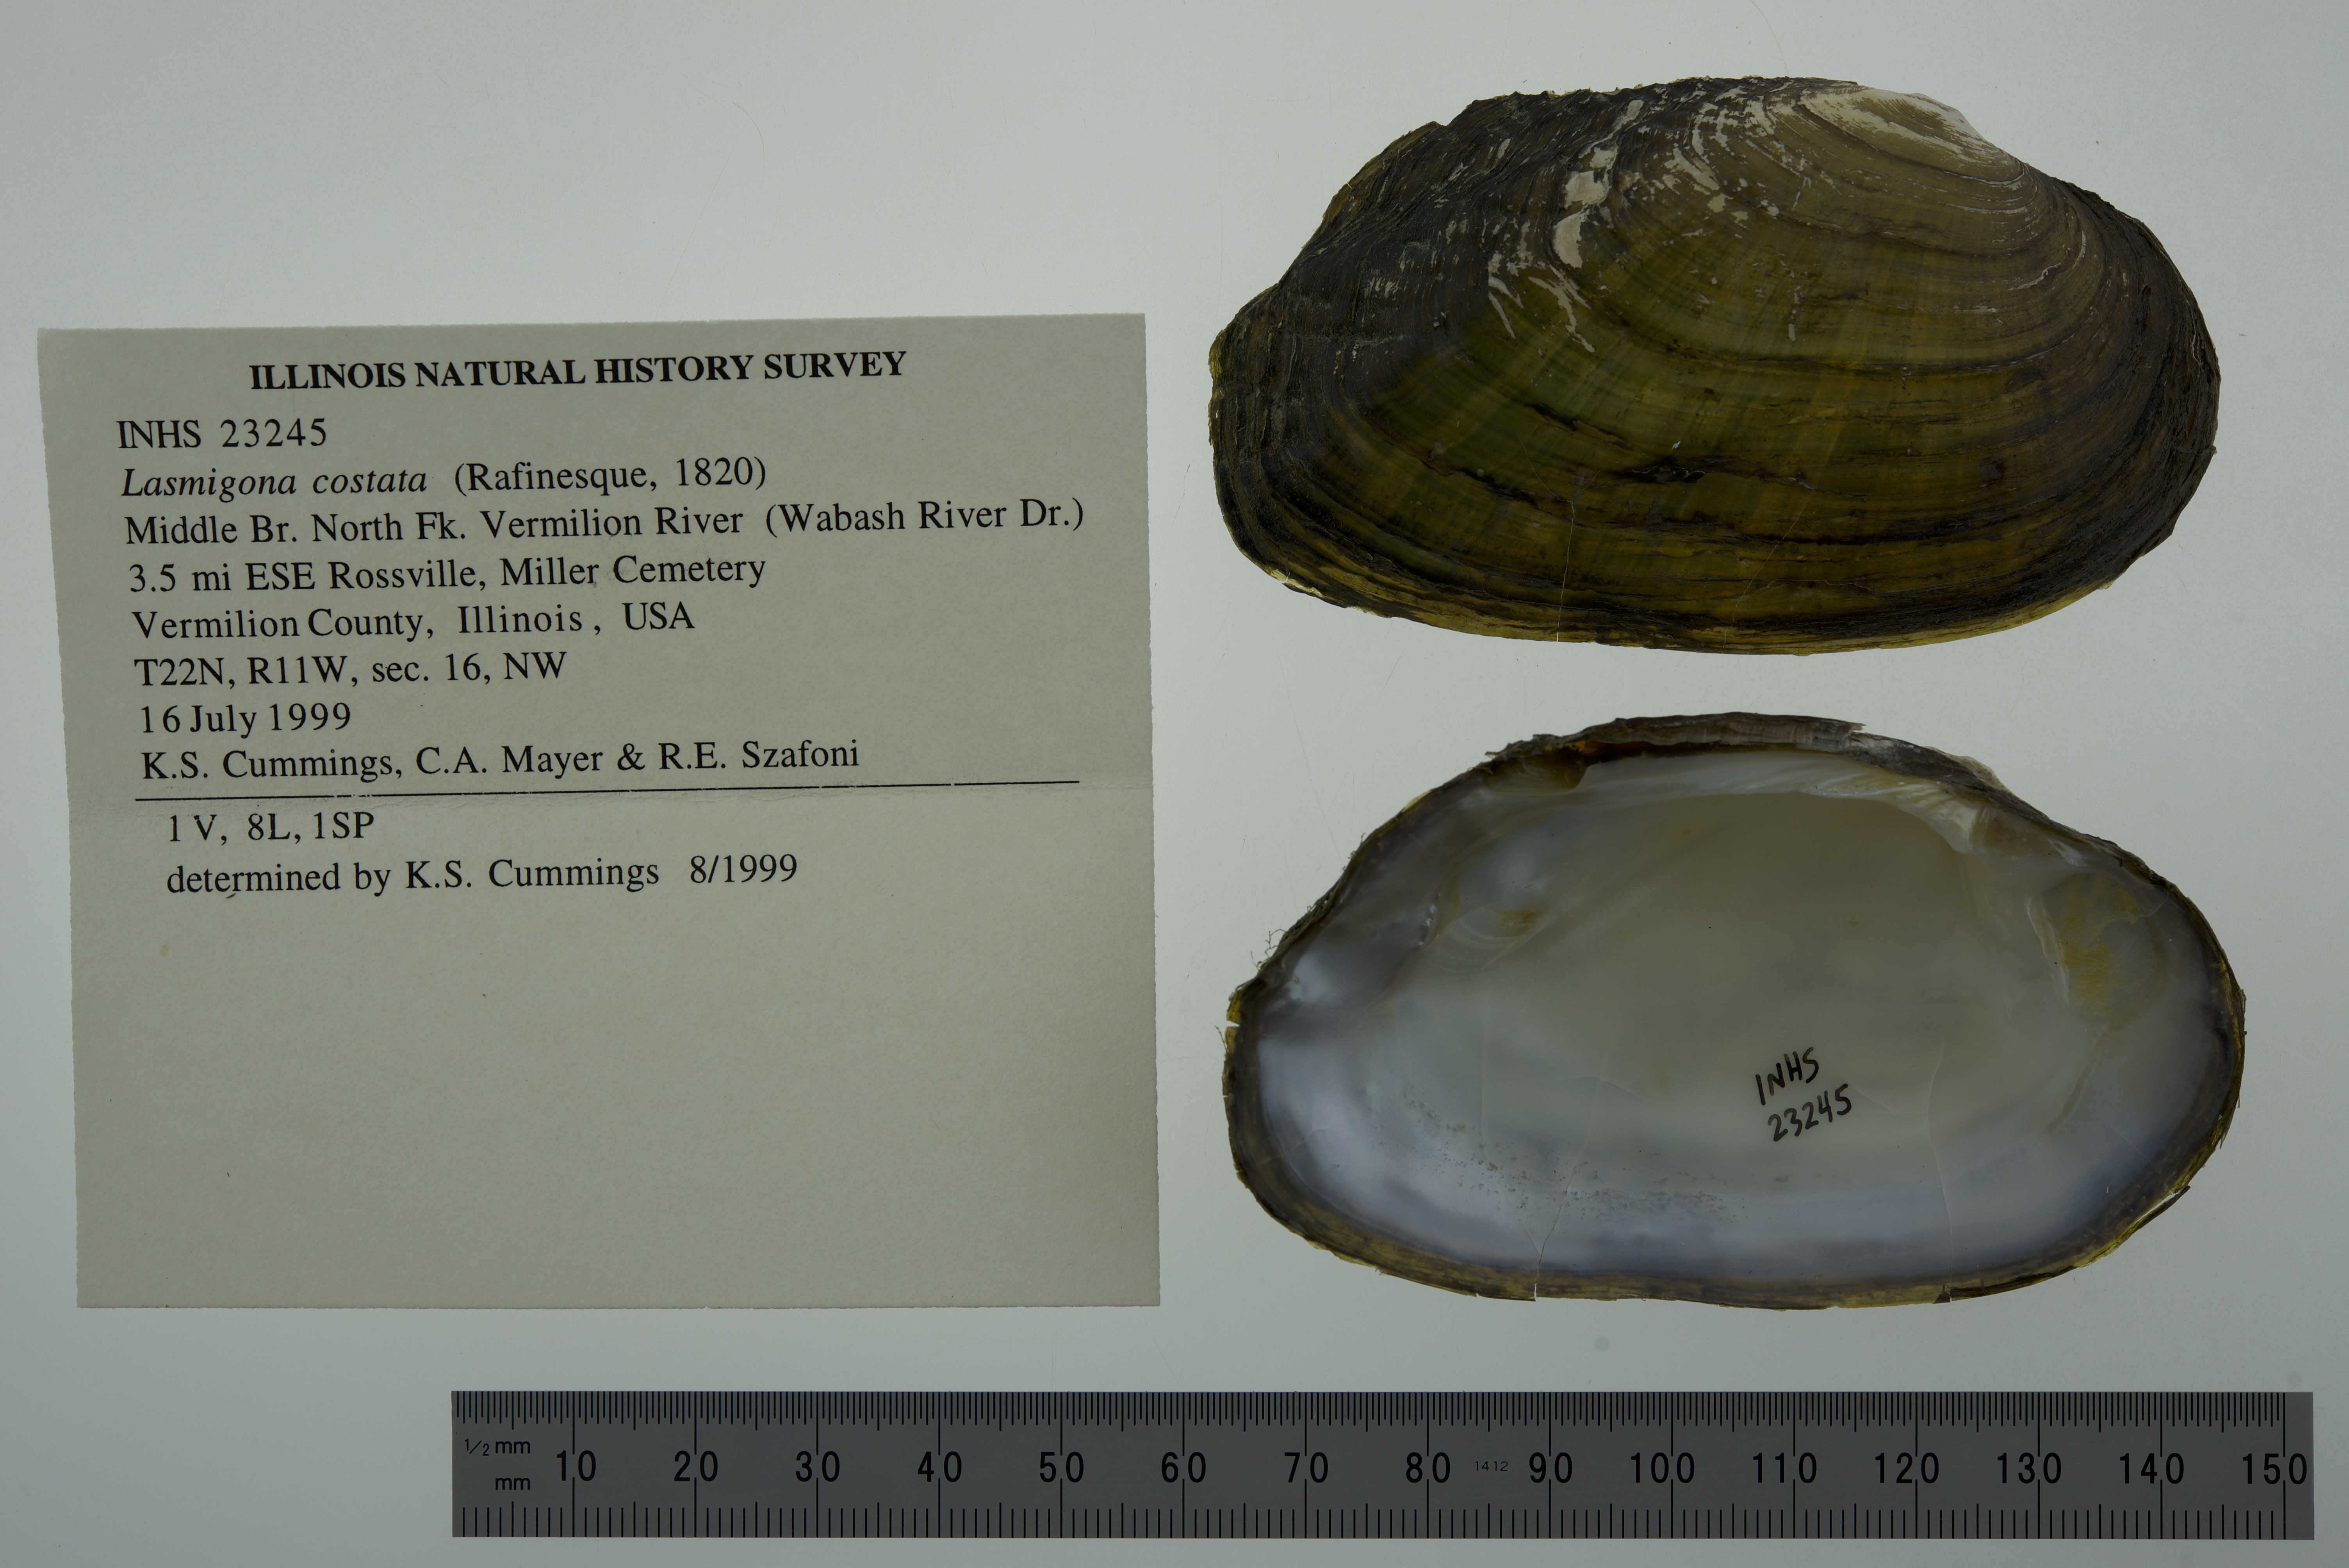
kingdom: Animalia
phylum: Mollusca
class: Bivalvia
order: Unionida
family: Unionidae
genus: Lasmigona
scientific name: Lasmigona costata
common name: Flutedshell
